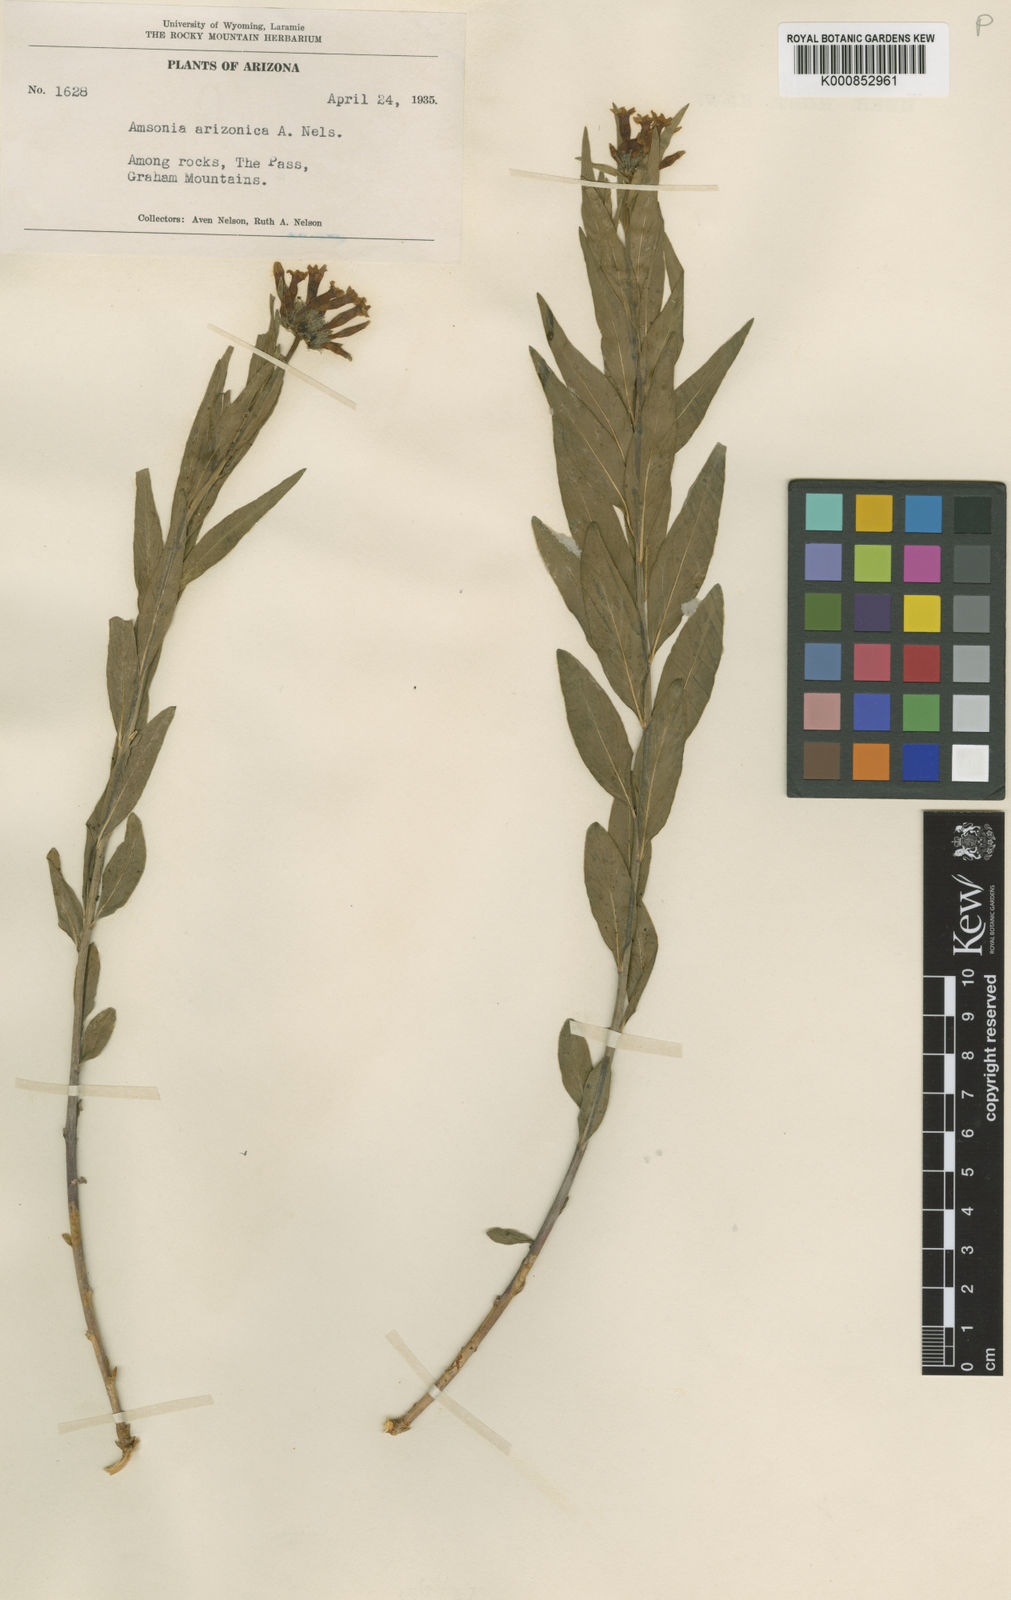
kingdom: Plantae
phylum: Tracheophyta
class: Magnoliopsida
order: Gentianales
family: Apocynaceae
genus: Amsonia
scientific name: Amsonia palmeri
